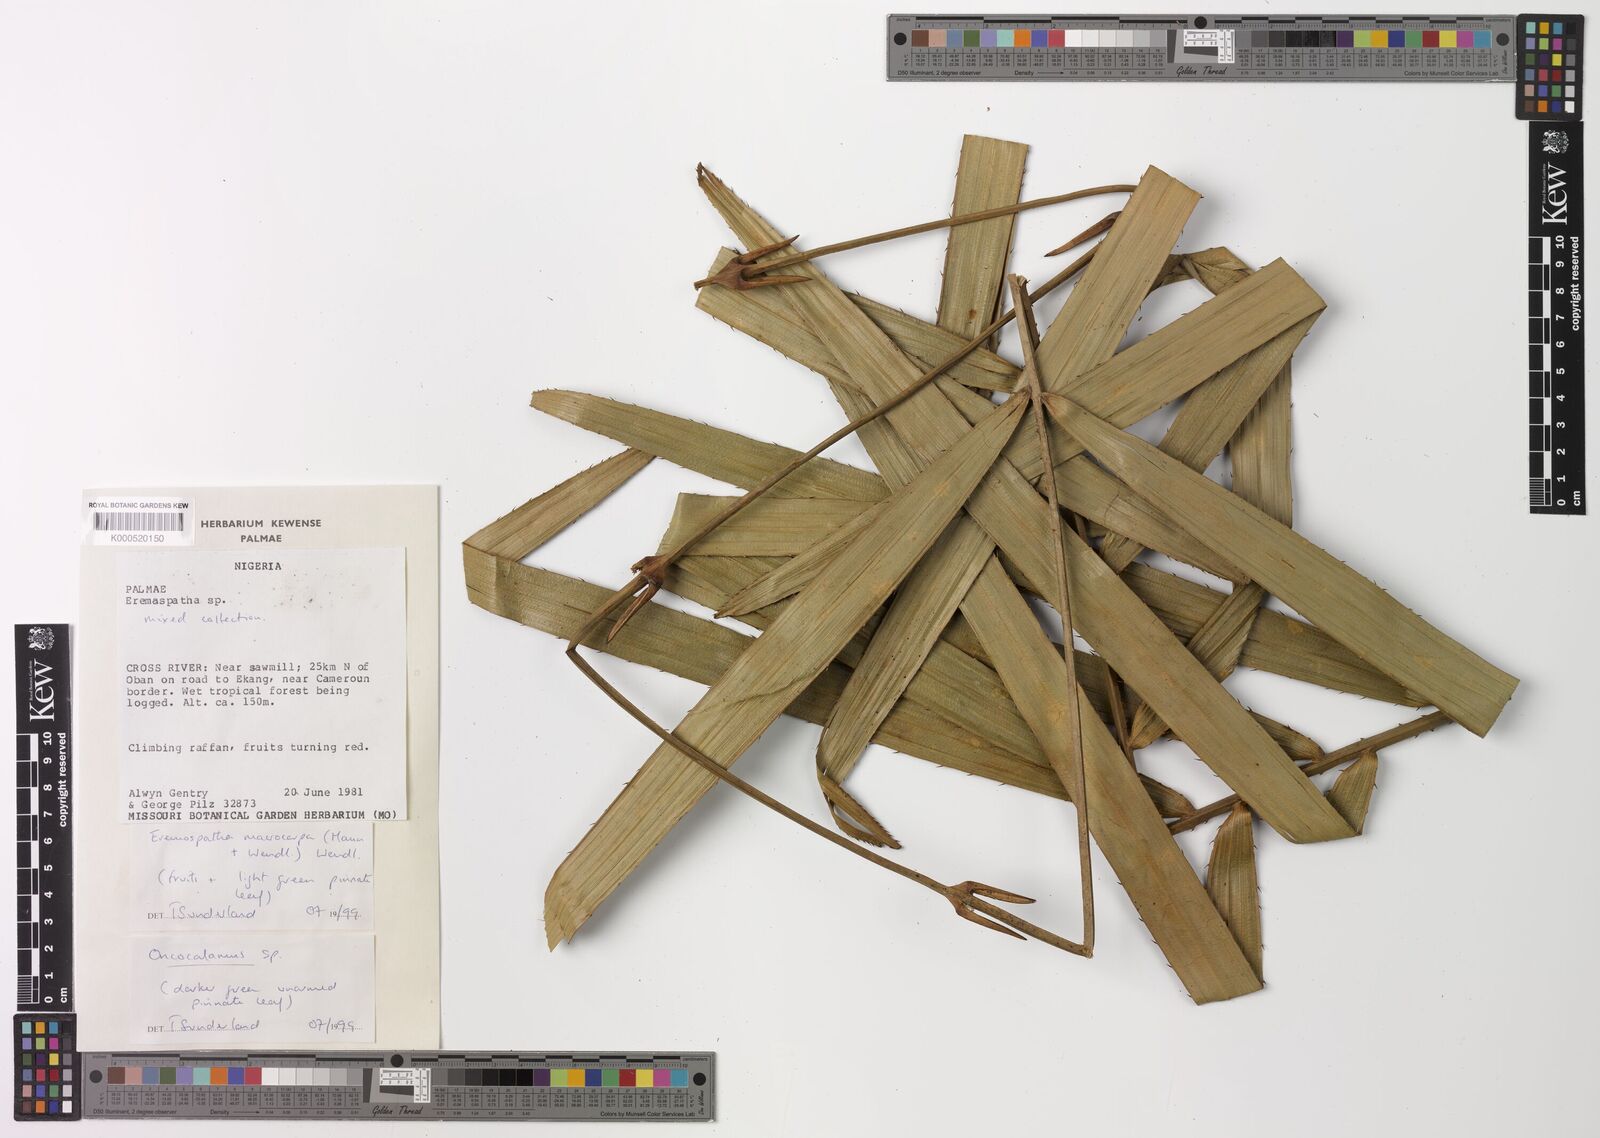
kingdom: Plantae
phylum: Tracheophyta
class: Liliopsida
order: Arecales
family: Arecaceae
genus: Eremospatha
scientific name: Eremospatha
